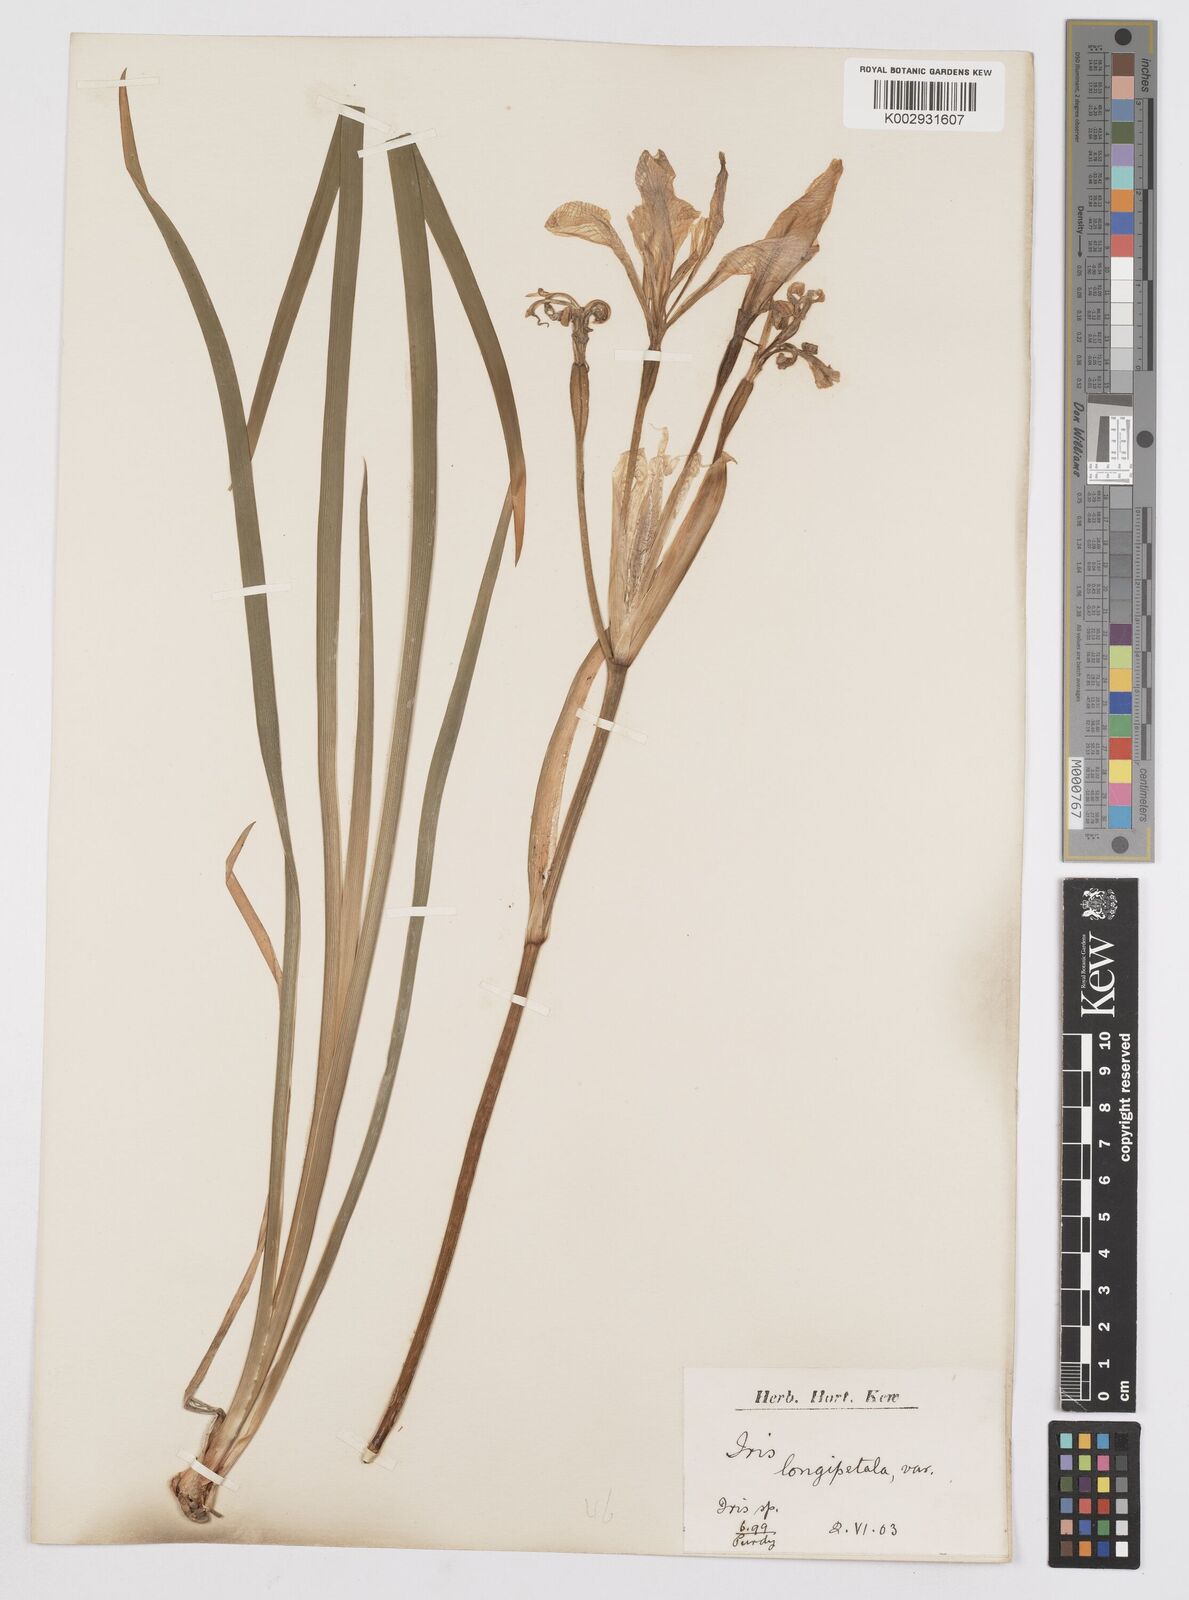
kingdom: Plantae
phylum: Tracheophyta
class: Liliopsida
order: Asparagales
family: Iridaceae
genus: Iris
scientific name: Iris longipetala
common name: Long-petal iris
